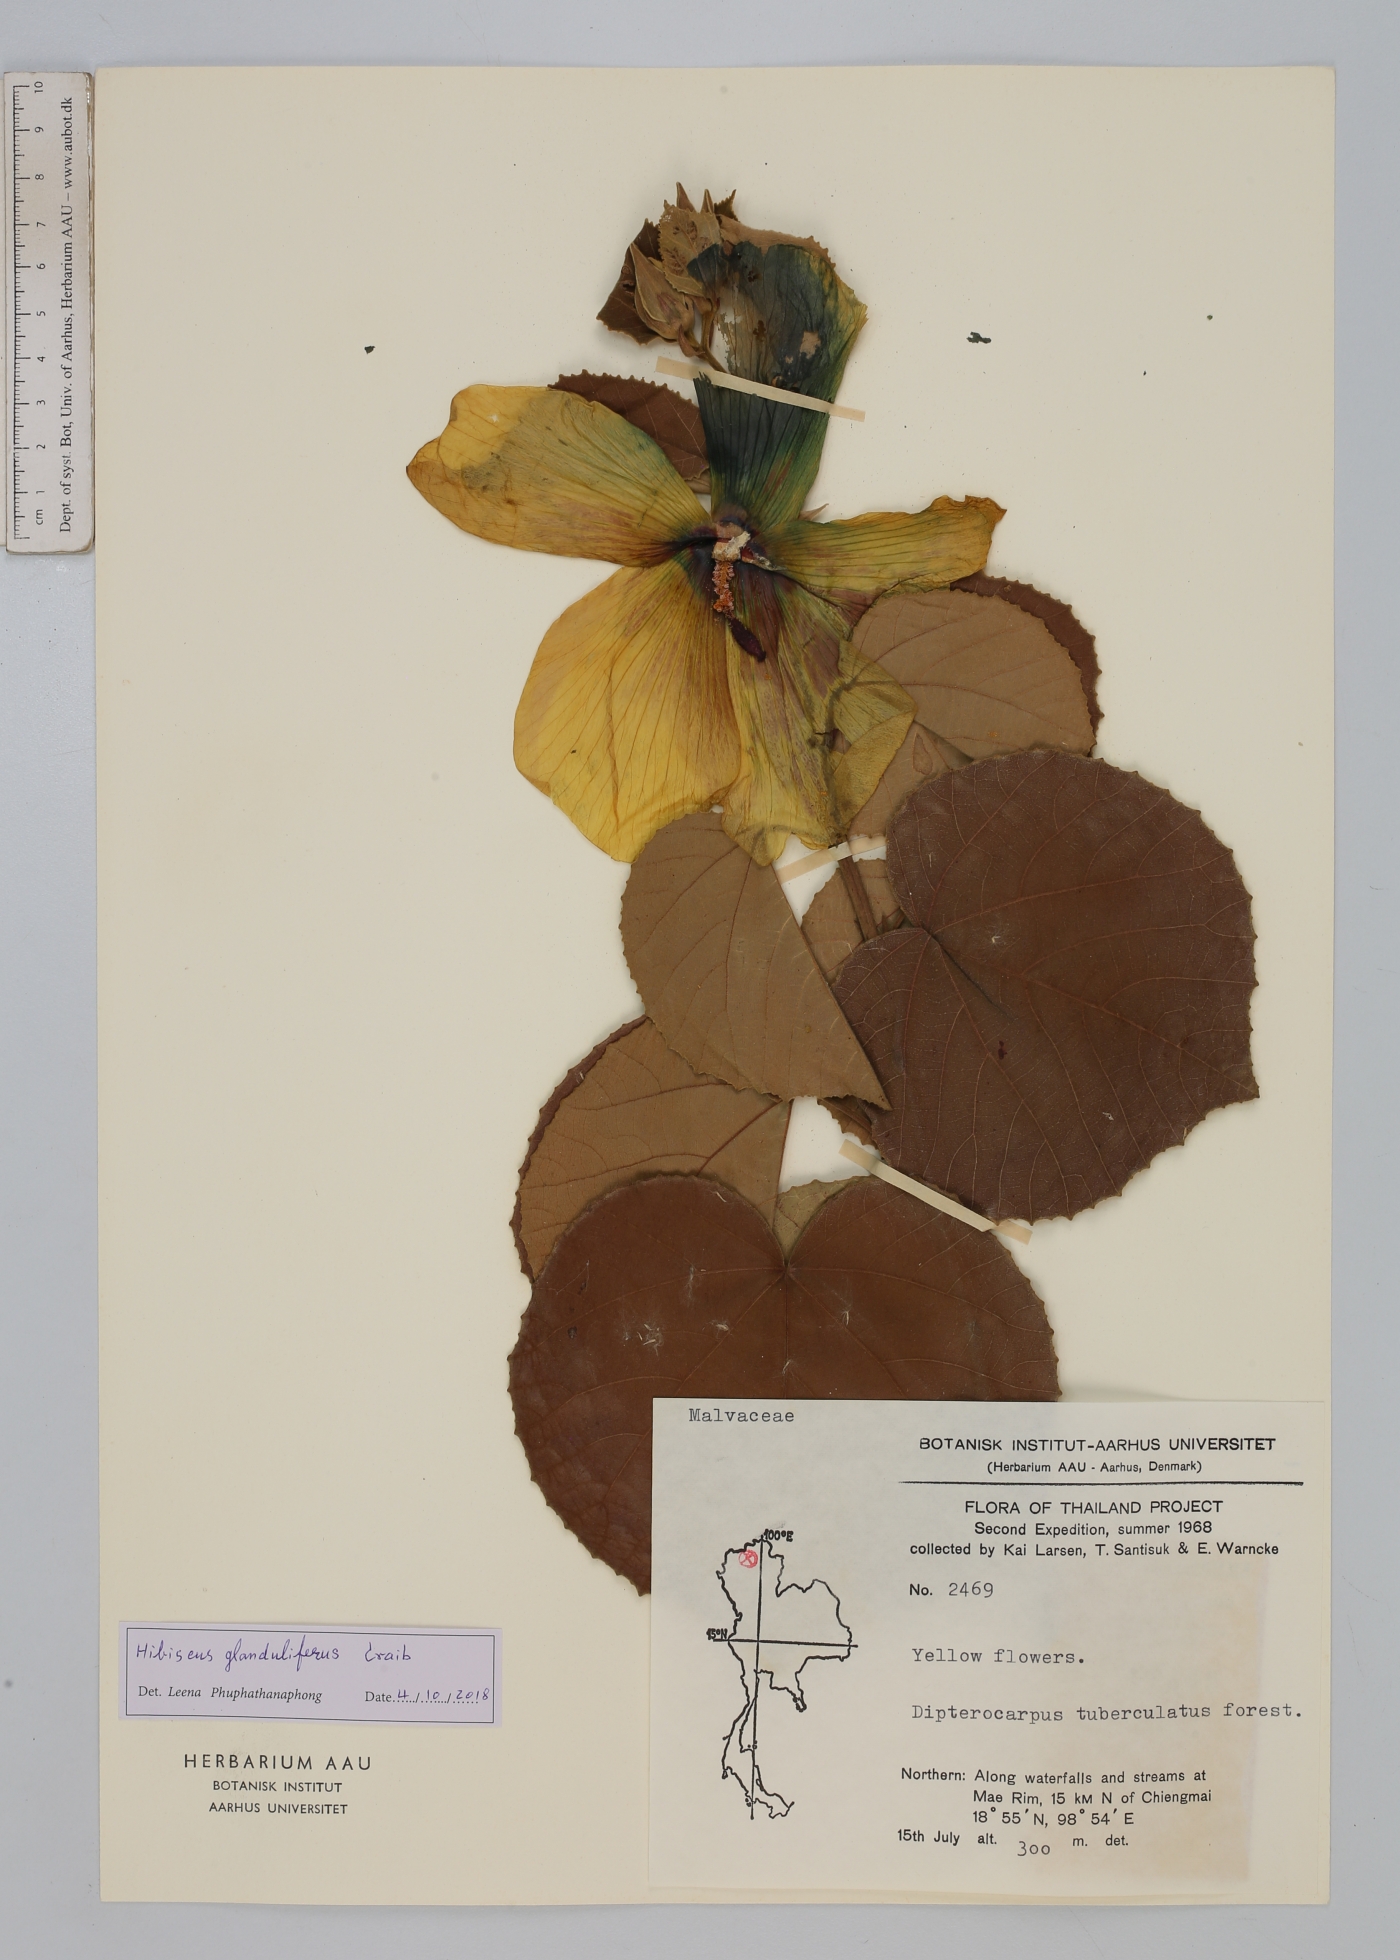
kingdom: Plantae
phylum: Tracheophyta
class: Magnoliopsida
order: Malvales
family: Malvaceae
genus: Hibiscus
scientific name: Hibiscus glanduliferus
